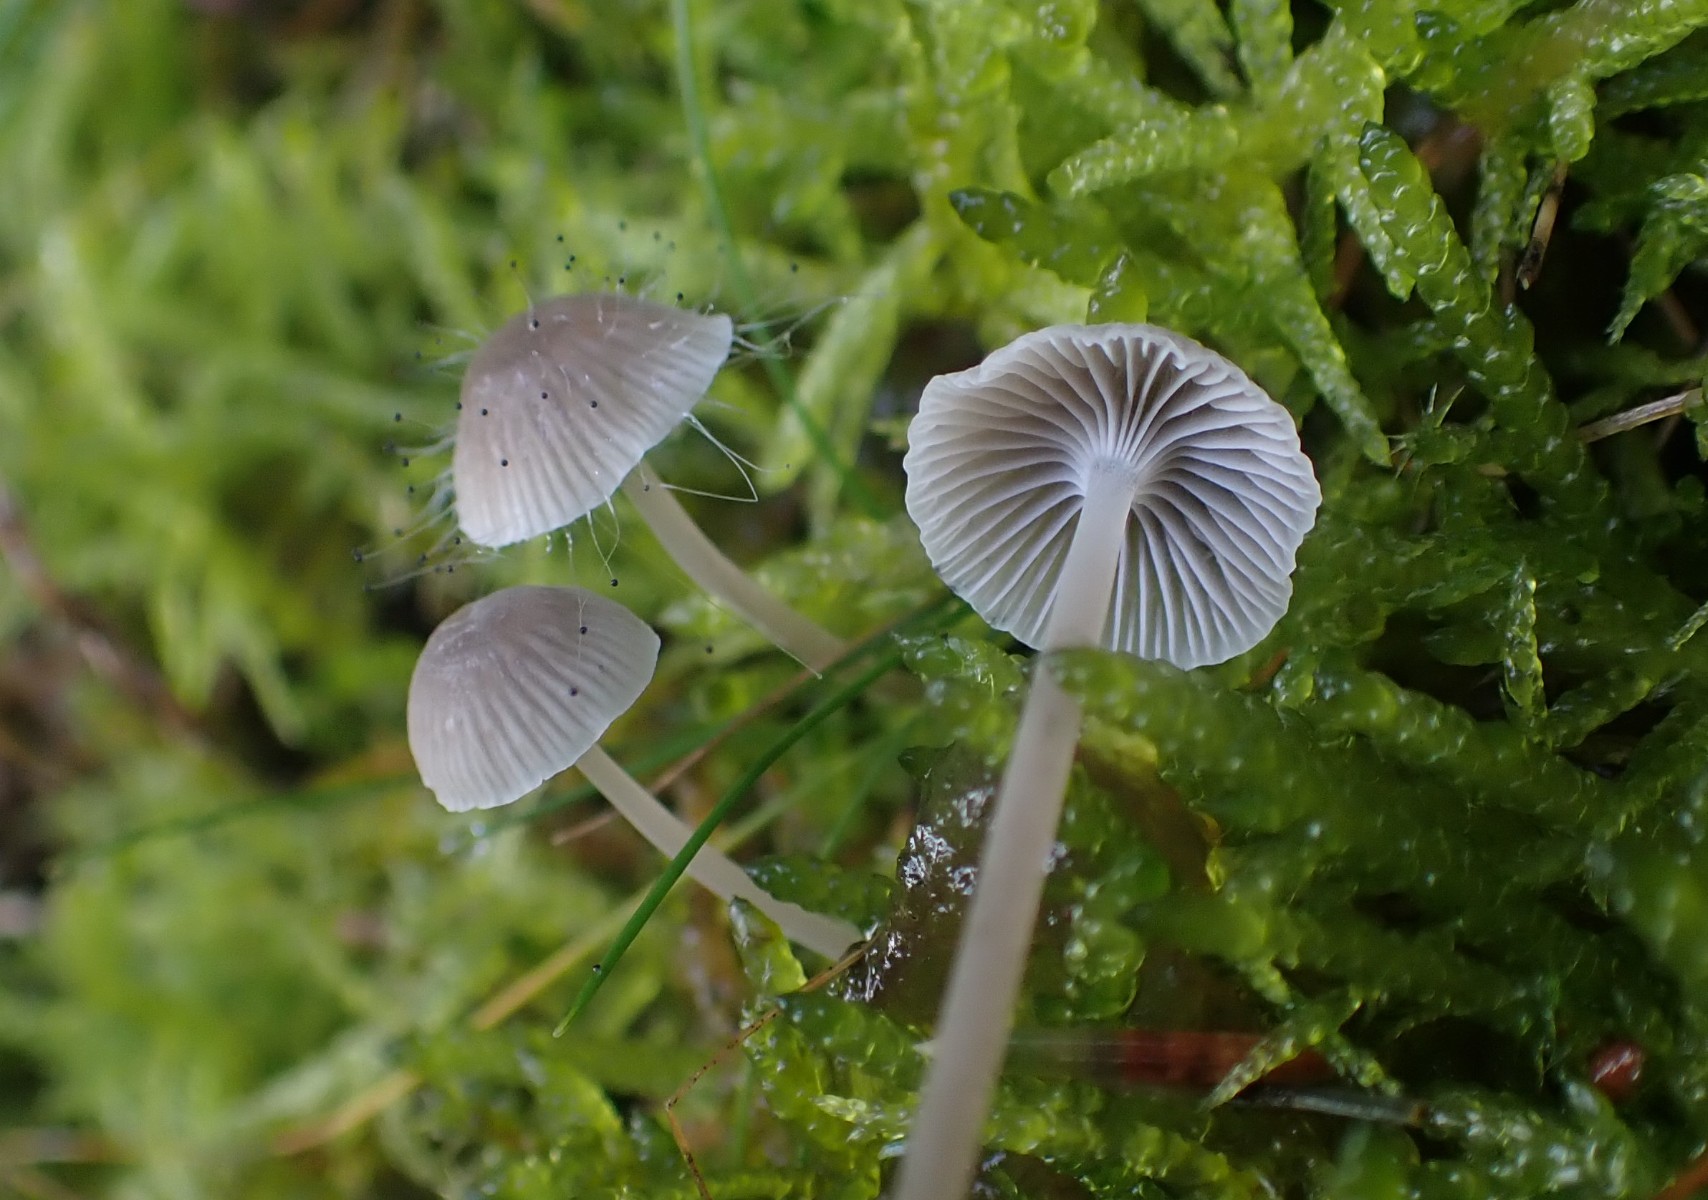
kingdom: Fungi
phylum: Basidiomycota
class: Agaricomycetes
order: Agaricales
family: Mycenaceae
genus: Mycena
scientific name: Mycena cinerella
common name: mel-huesvamp
